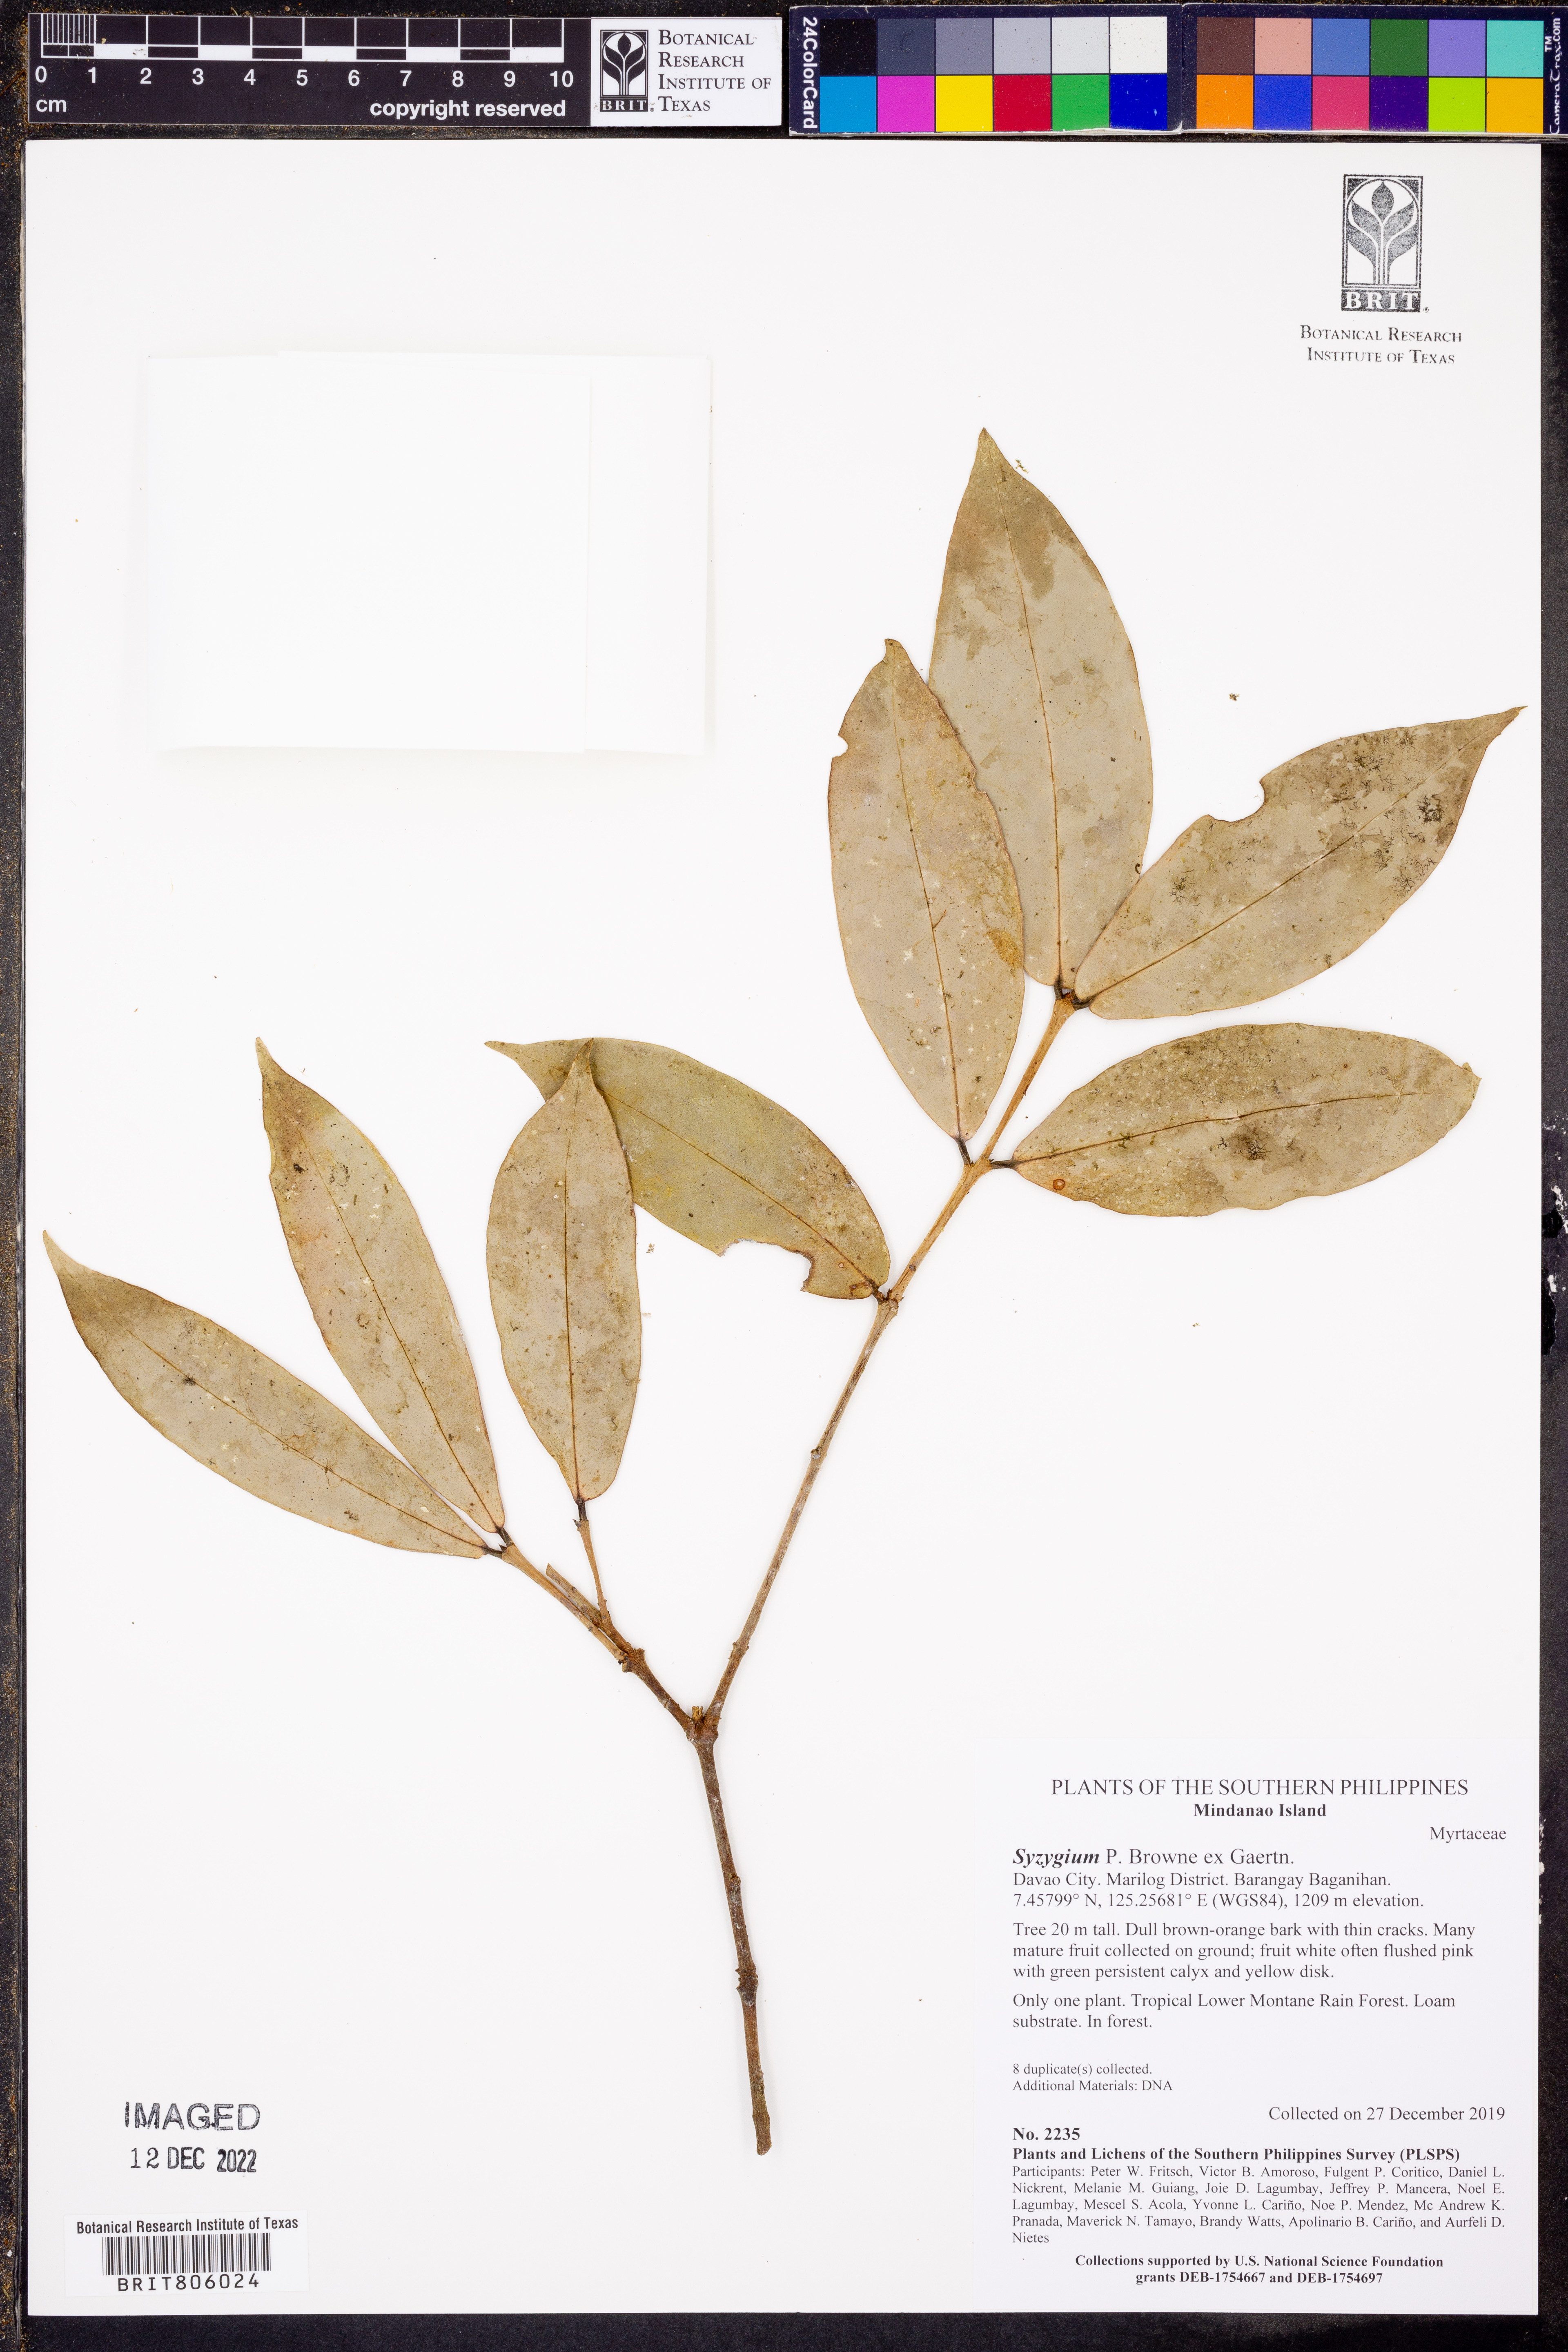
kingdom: Plantae
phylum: Tracheophyta
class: Magnoliopsida
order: Myrtales
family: Myrtaceae
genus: Syzygium
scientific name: Syzygium
